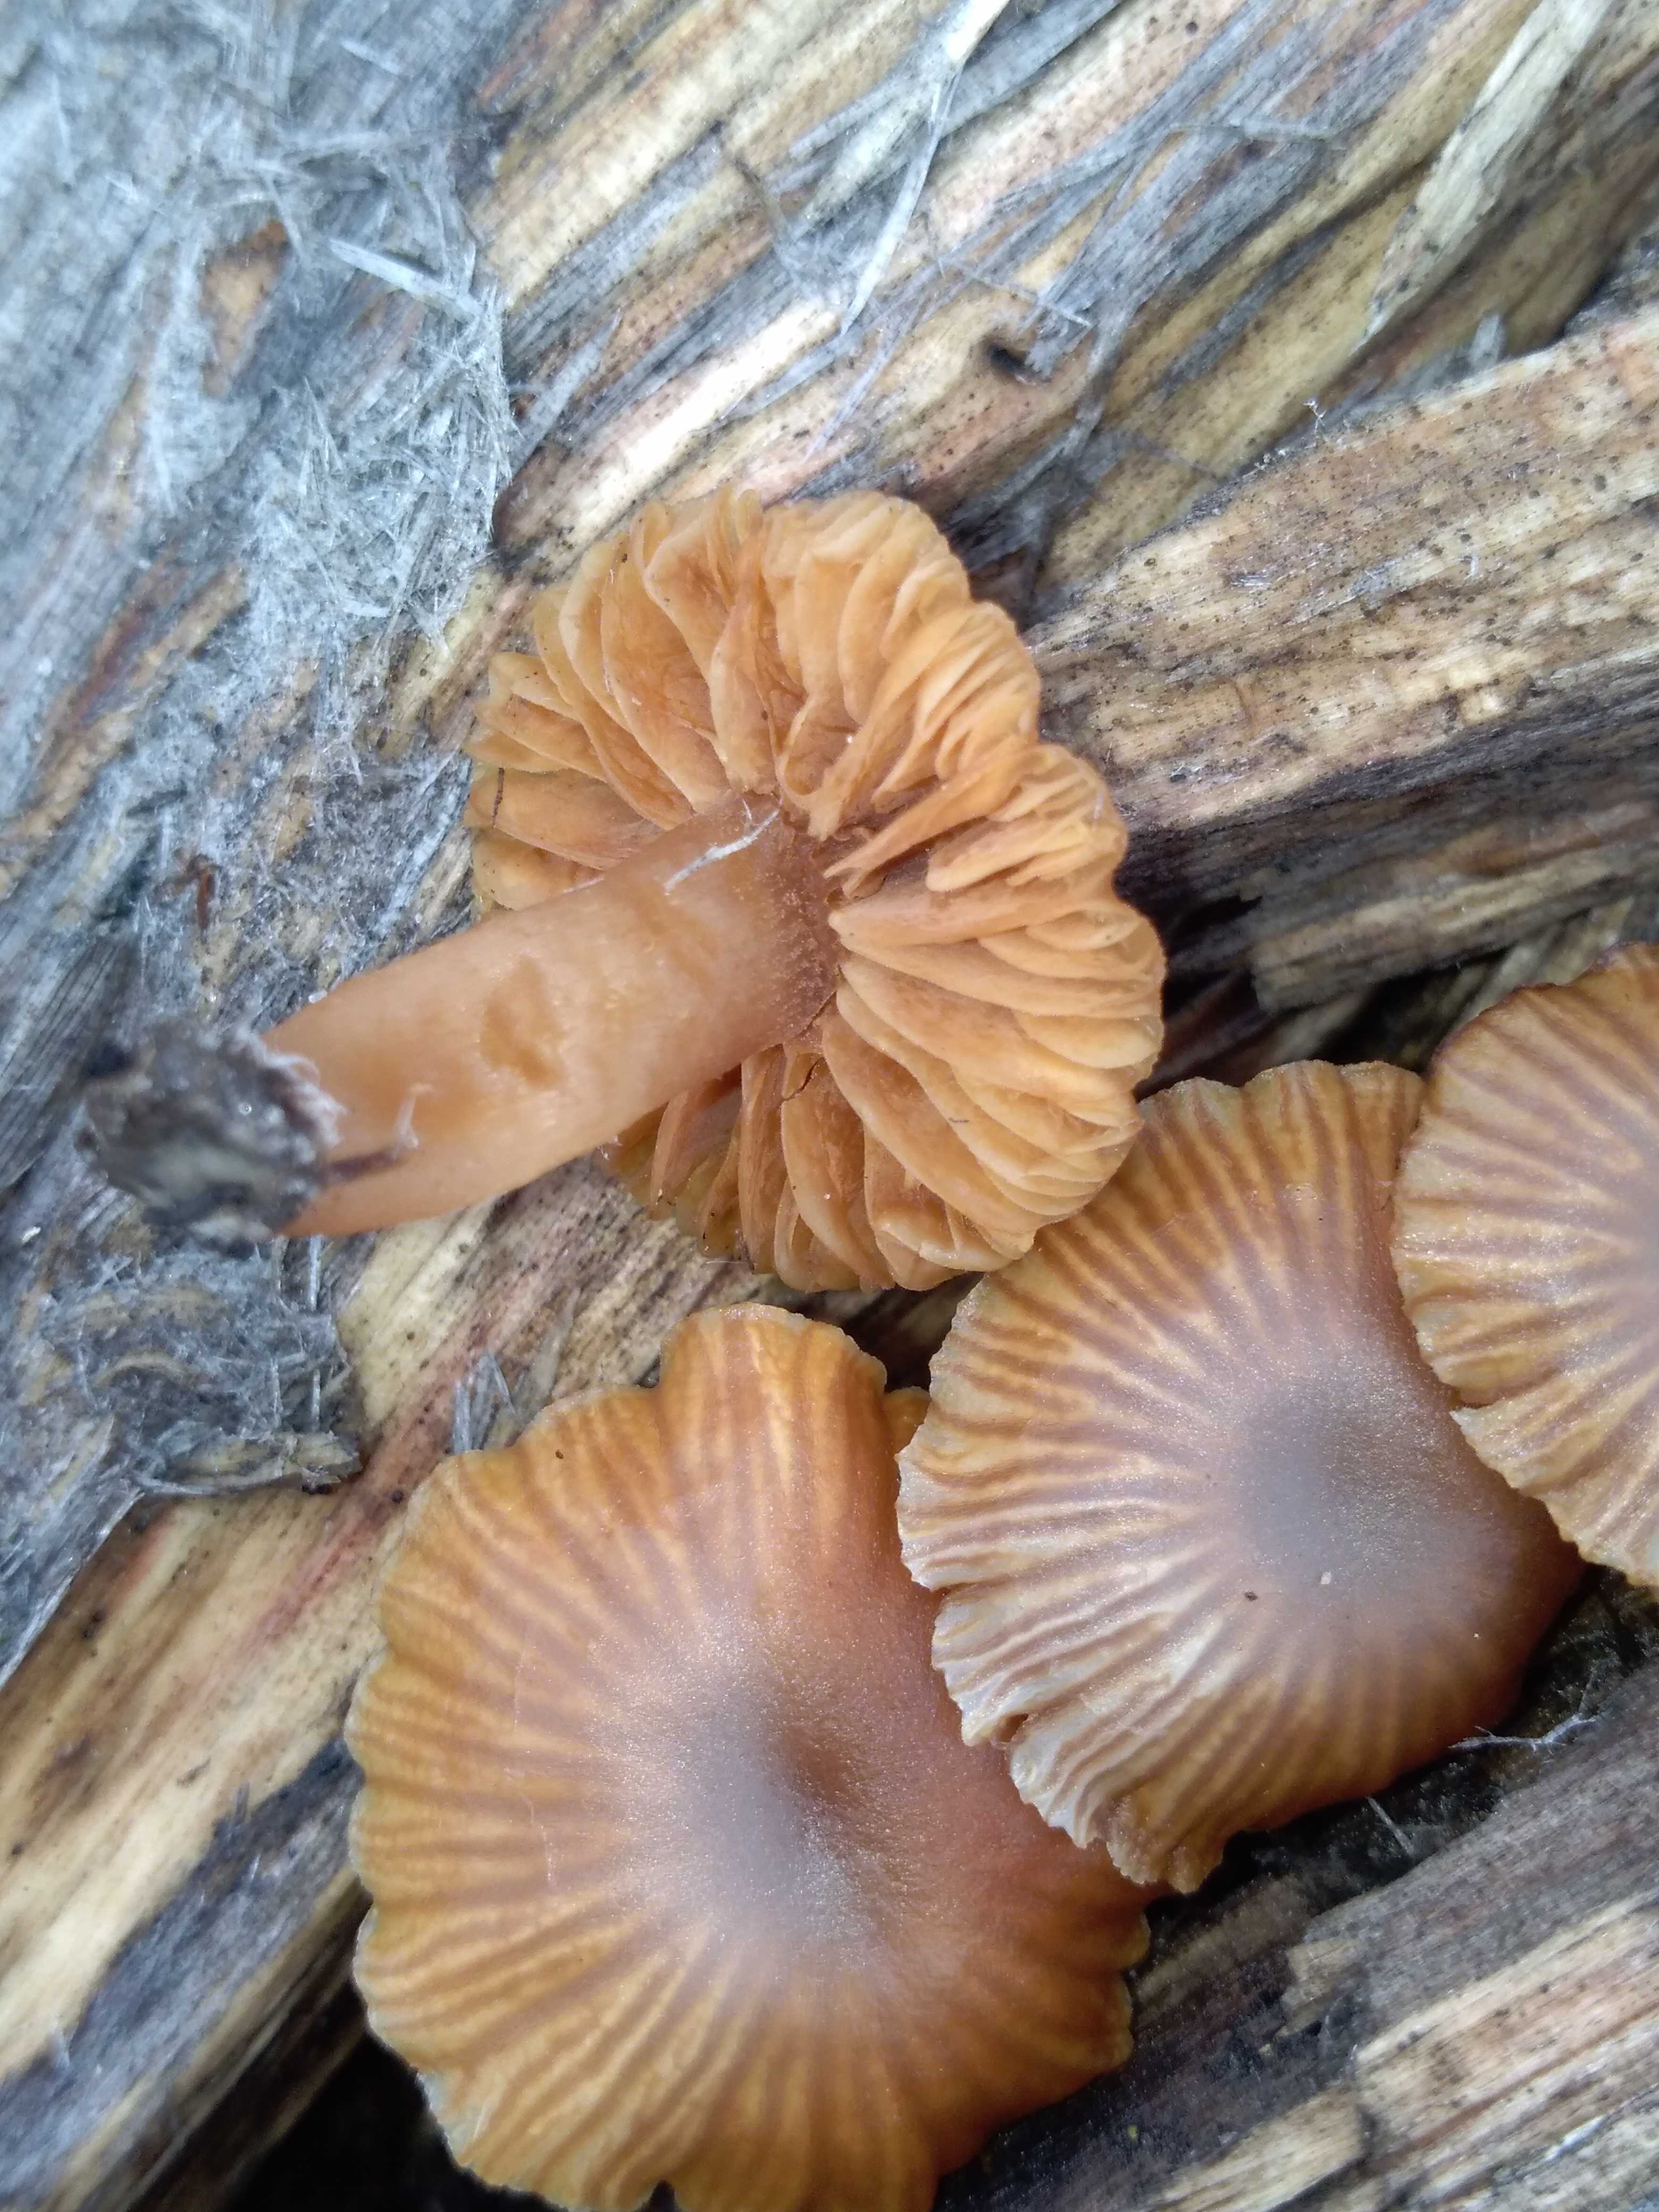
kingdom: Fungi
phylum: Basidiomycota
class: Agaricomycetes
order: Agaricales
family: Tubariaceae
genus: Tubaria
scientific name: Tubaria furfuracea
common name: kliddet fnughat
